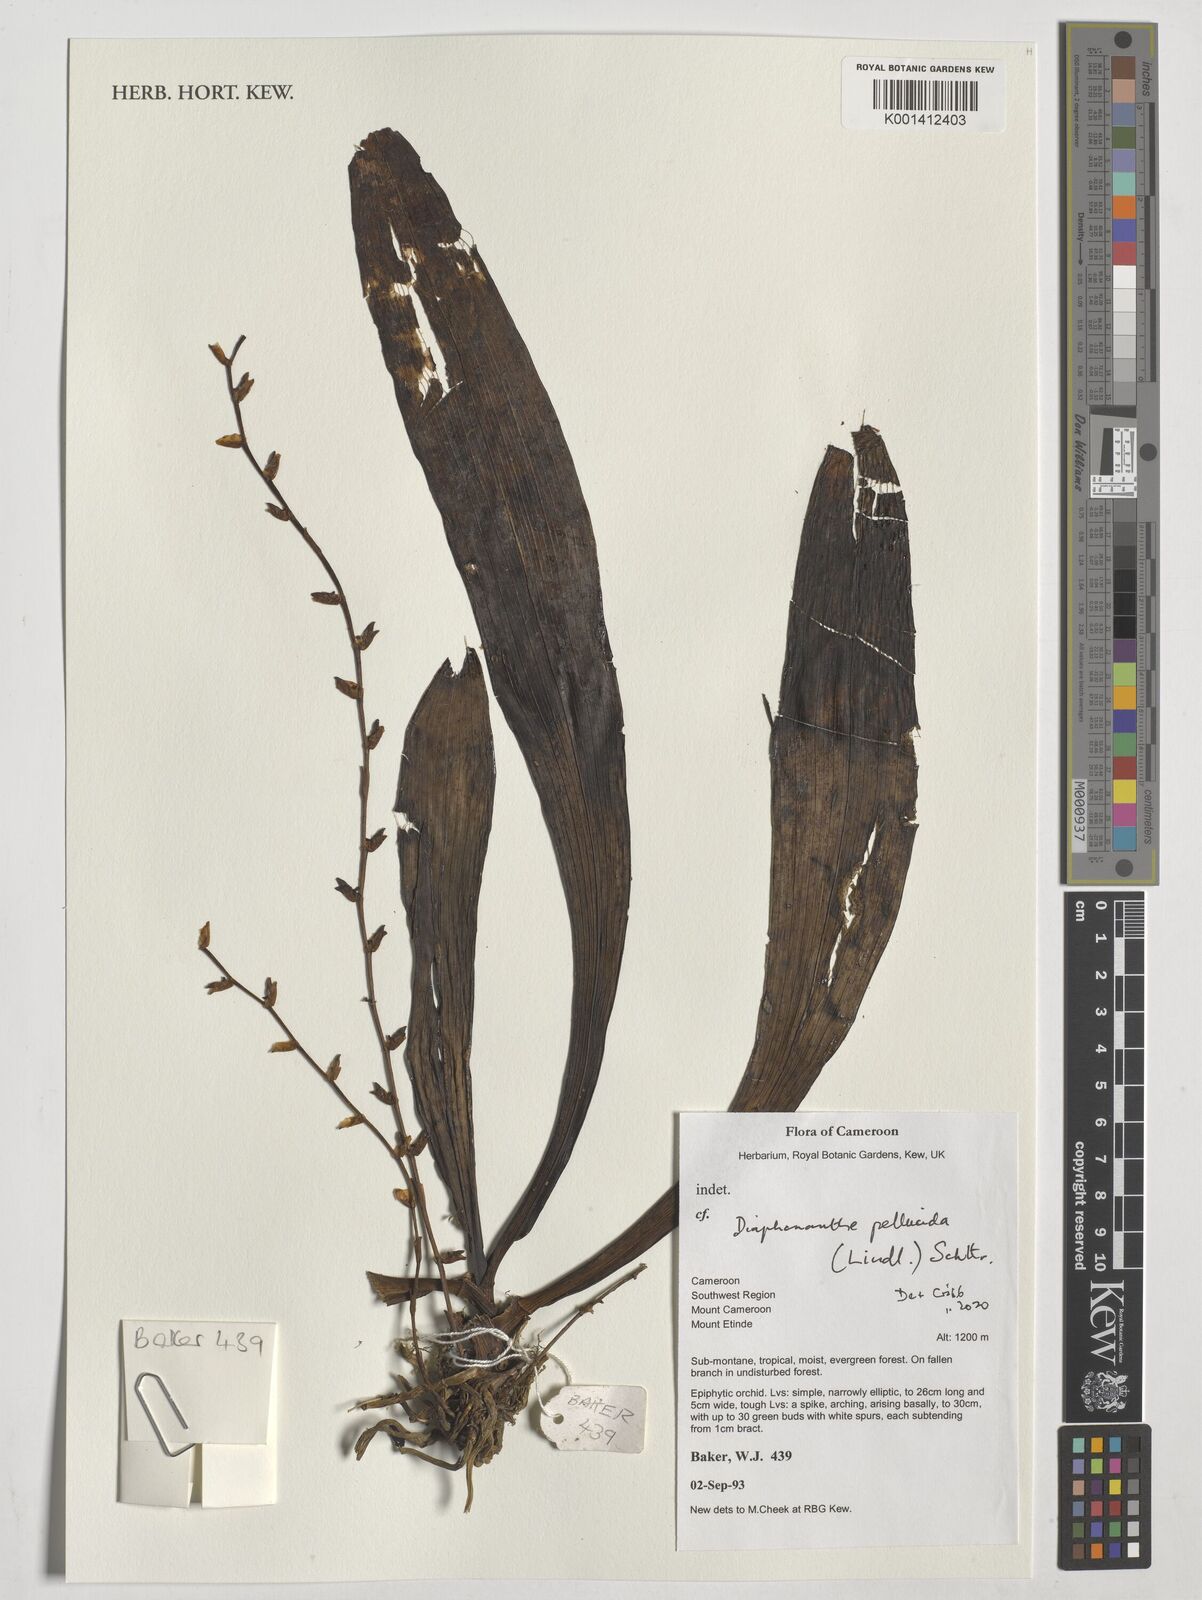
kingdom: Plantae
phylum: Tracheophyta
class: Liliopsida
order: Asparagales
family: Orchidaceae
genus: Diaphananthe
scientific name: Diaphananthe pellucida
